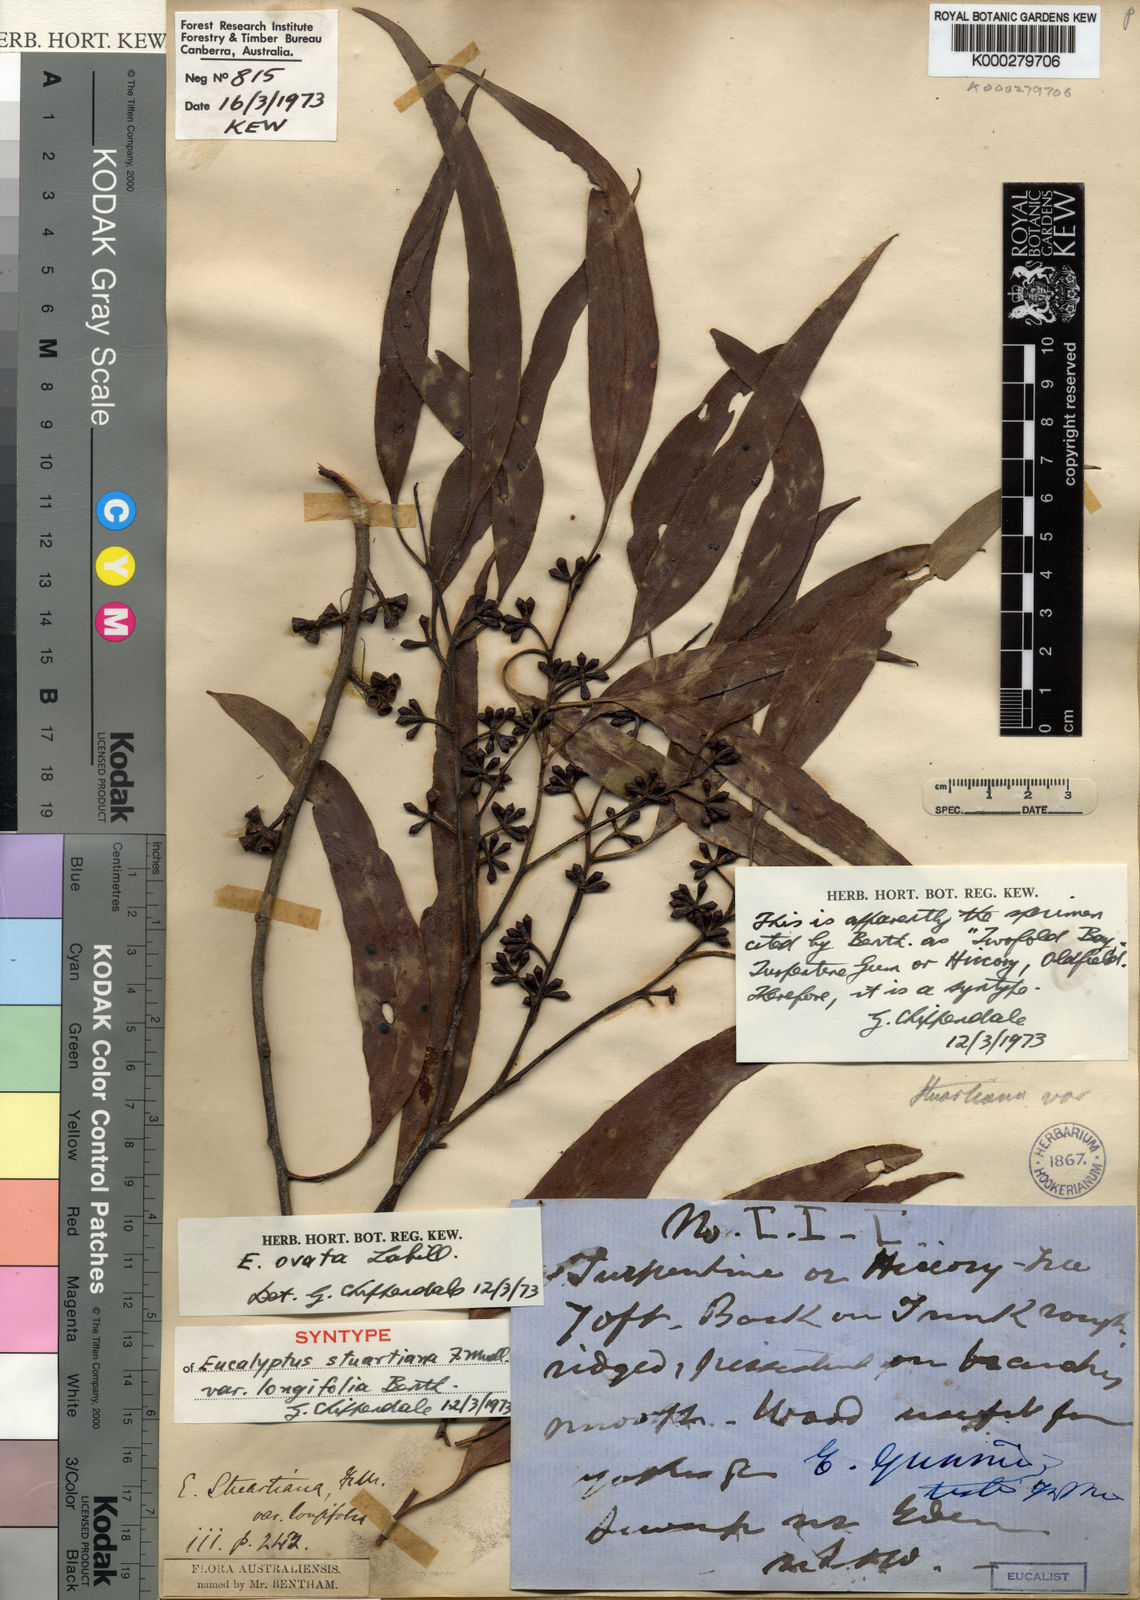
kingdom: Plantae
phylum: Tracheophyta
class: Magnoliopsida
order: Myrtales
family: Myrtaceae
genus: Eucalyptus
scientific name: Eucalyptus bridgesiana
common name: Applebox
